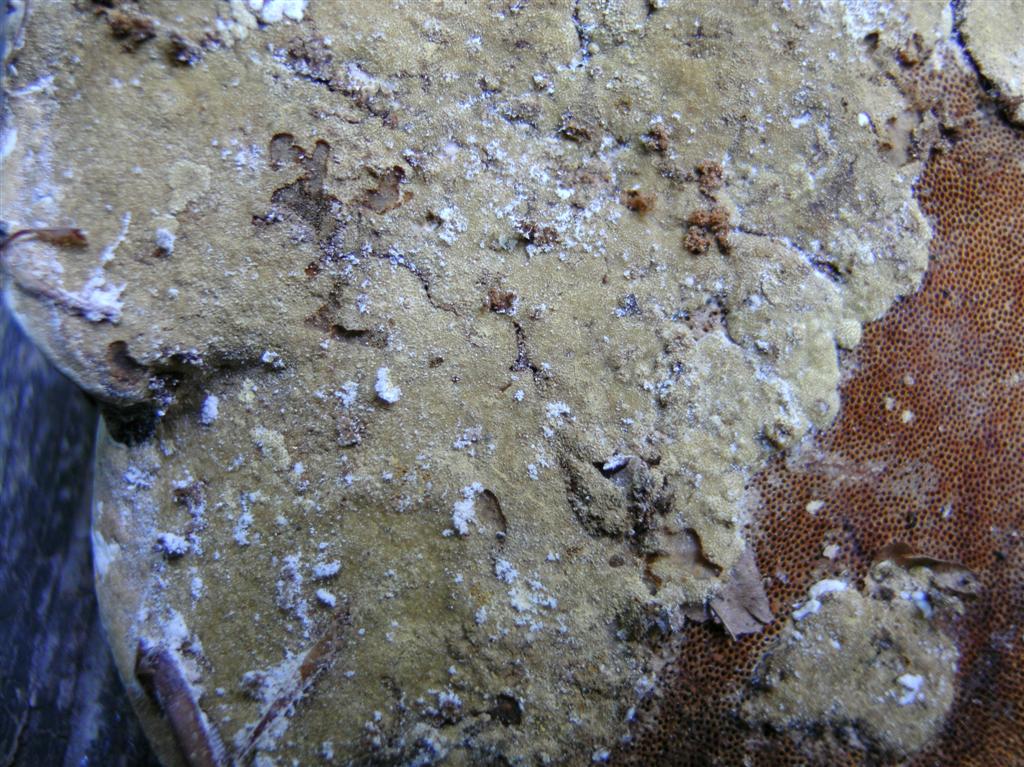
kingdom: Fungi
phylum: Ascomycota
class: Sordariomycetes
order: Hypocreales
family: Hypocreaceae
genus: Trichoderma
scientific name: Trichoderma pulvinatum
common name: snyltende kødkerne
